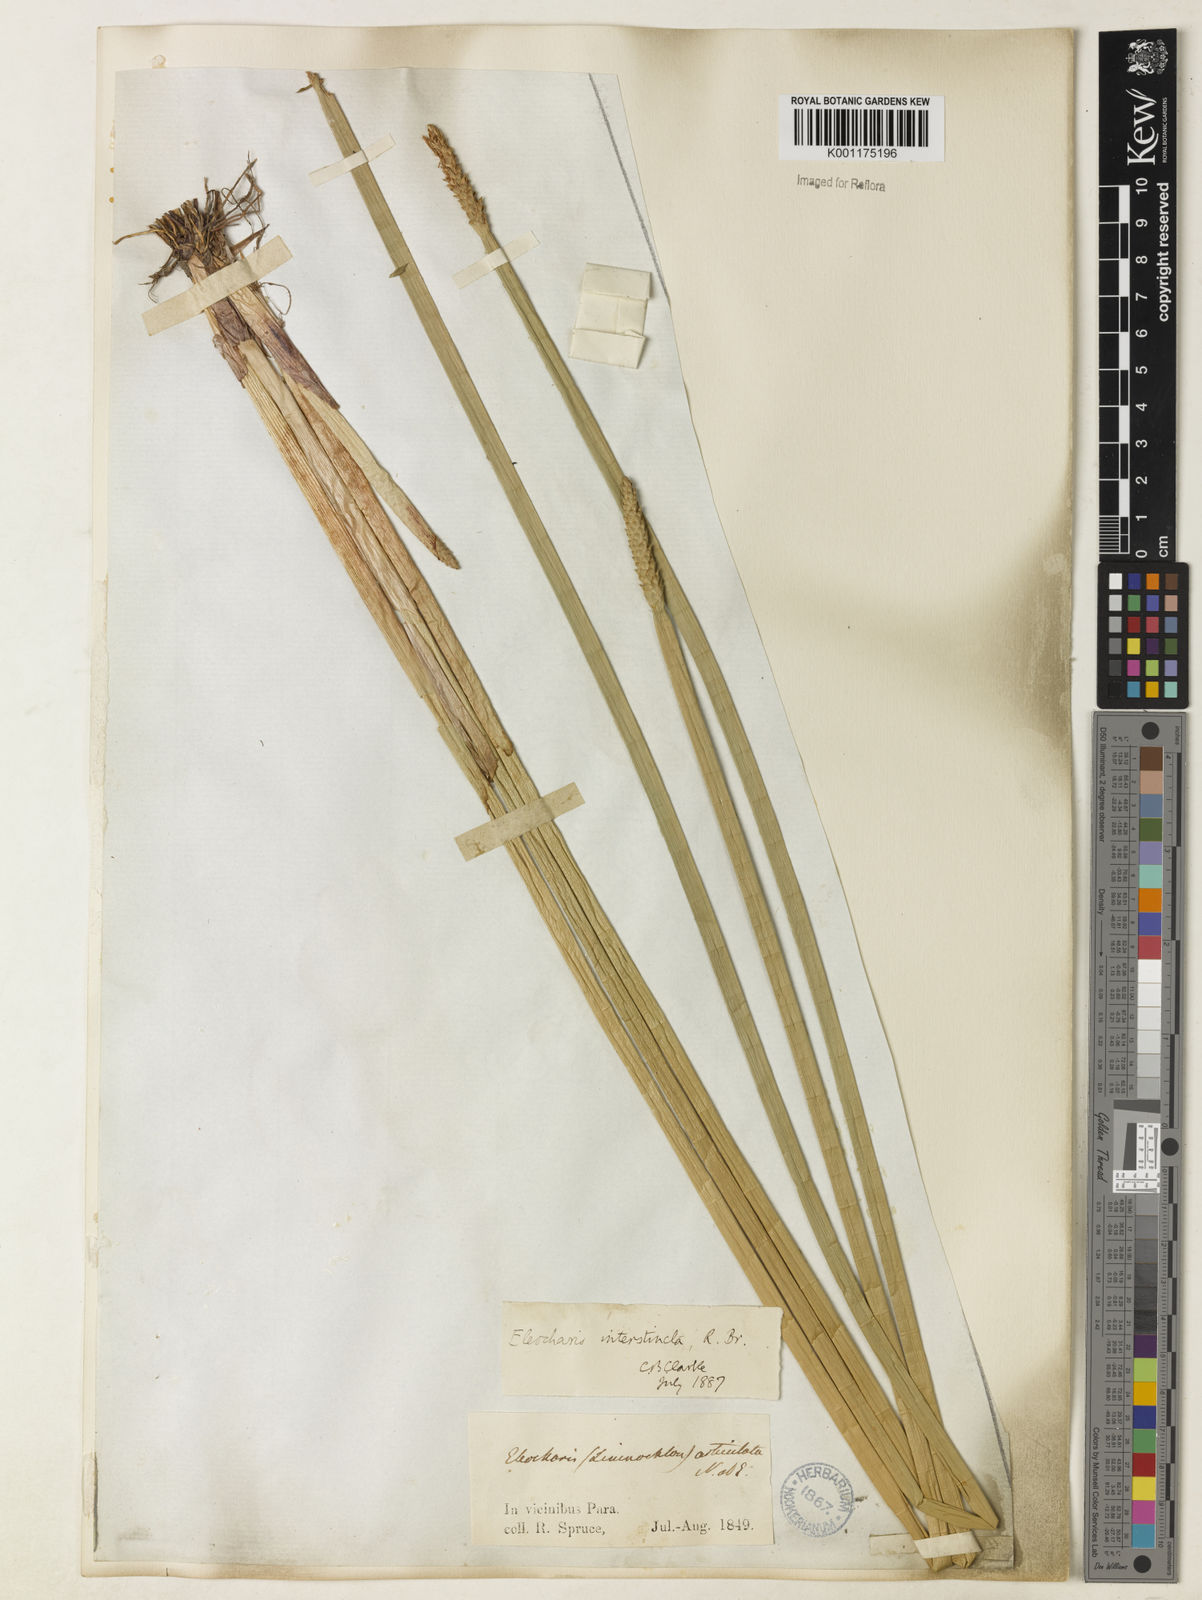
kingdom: Plantae
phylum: Tracheophyta
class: Liliopsida
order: Poales
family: Cyperaceae
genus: Eleocharis
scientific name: Eleocharis interstincta
